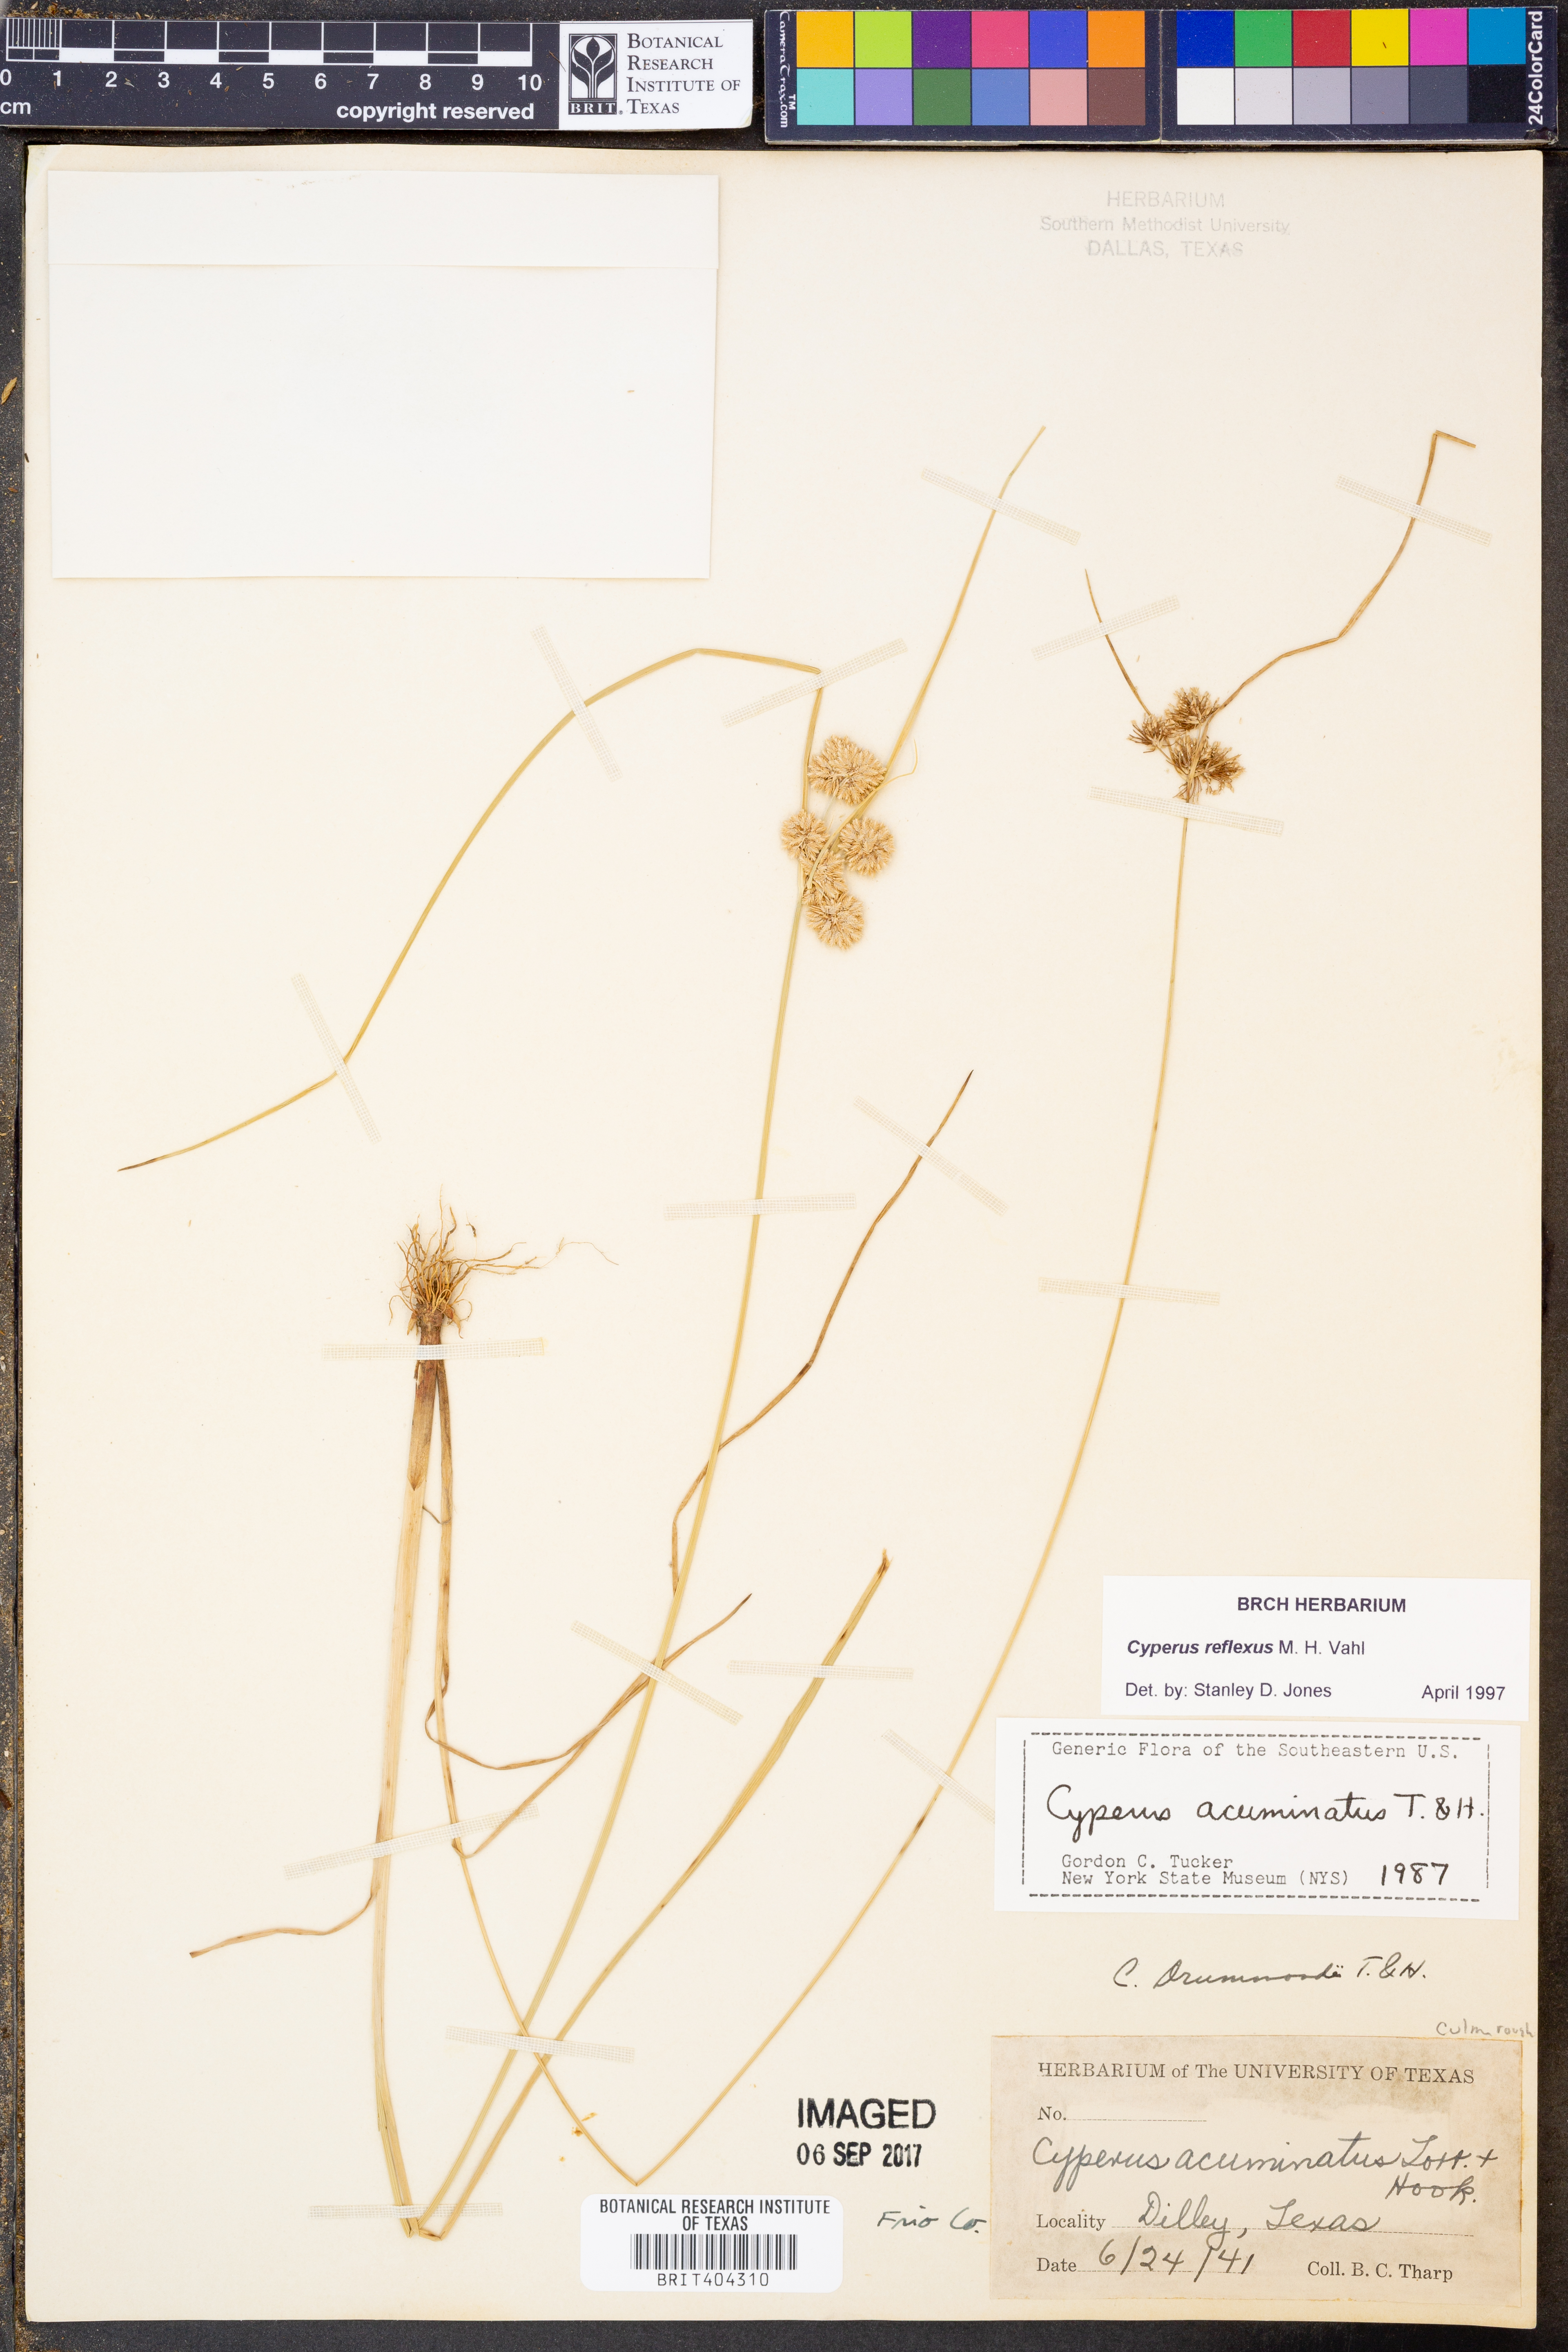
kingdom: Plantae
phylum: Tracheophyta
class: Liliopsida
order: Poales
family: Cyperaceae
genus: Cyperus
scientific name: Cyperus reflexus
